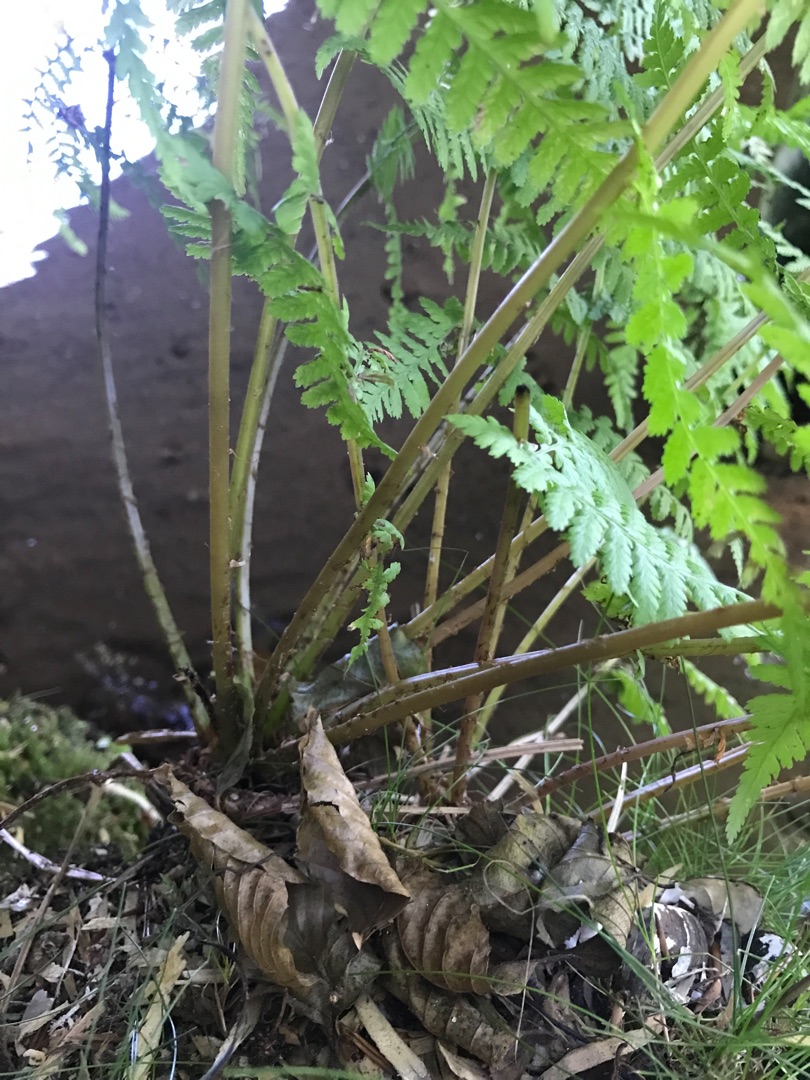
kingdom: Plantae
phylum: Tracheophyta
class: Polypodiopsida
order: Polypodiales
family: Athyriaceae
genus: Athyrium
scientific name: Athyrium filix-femina
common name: Fjerbregne
